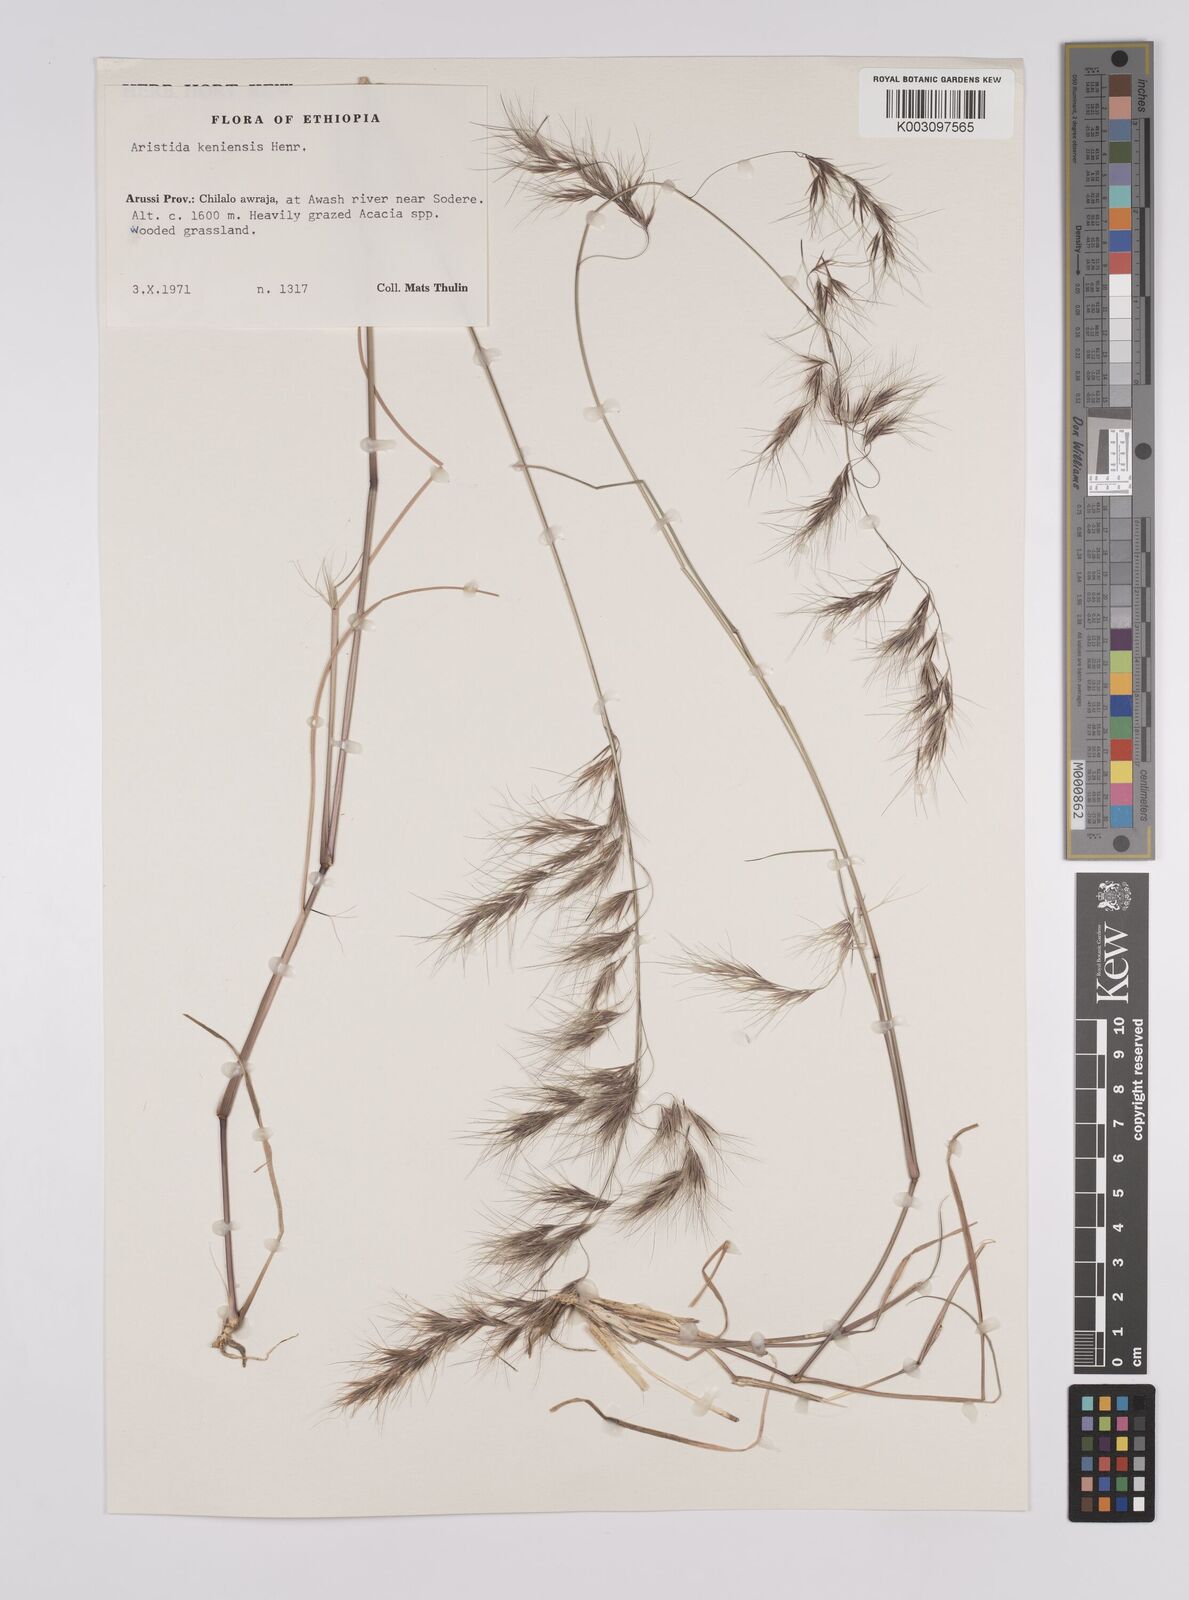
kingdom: Plantae
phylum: Tracheophyta
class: Liliopsida
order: Poales
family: Poaceae
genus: Aristida
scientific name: Aristida kenyensis
